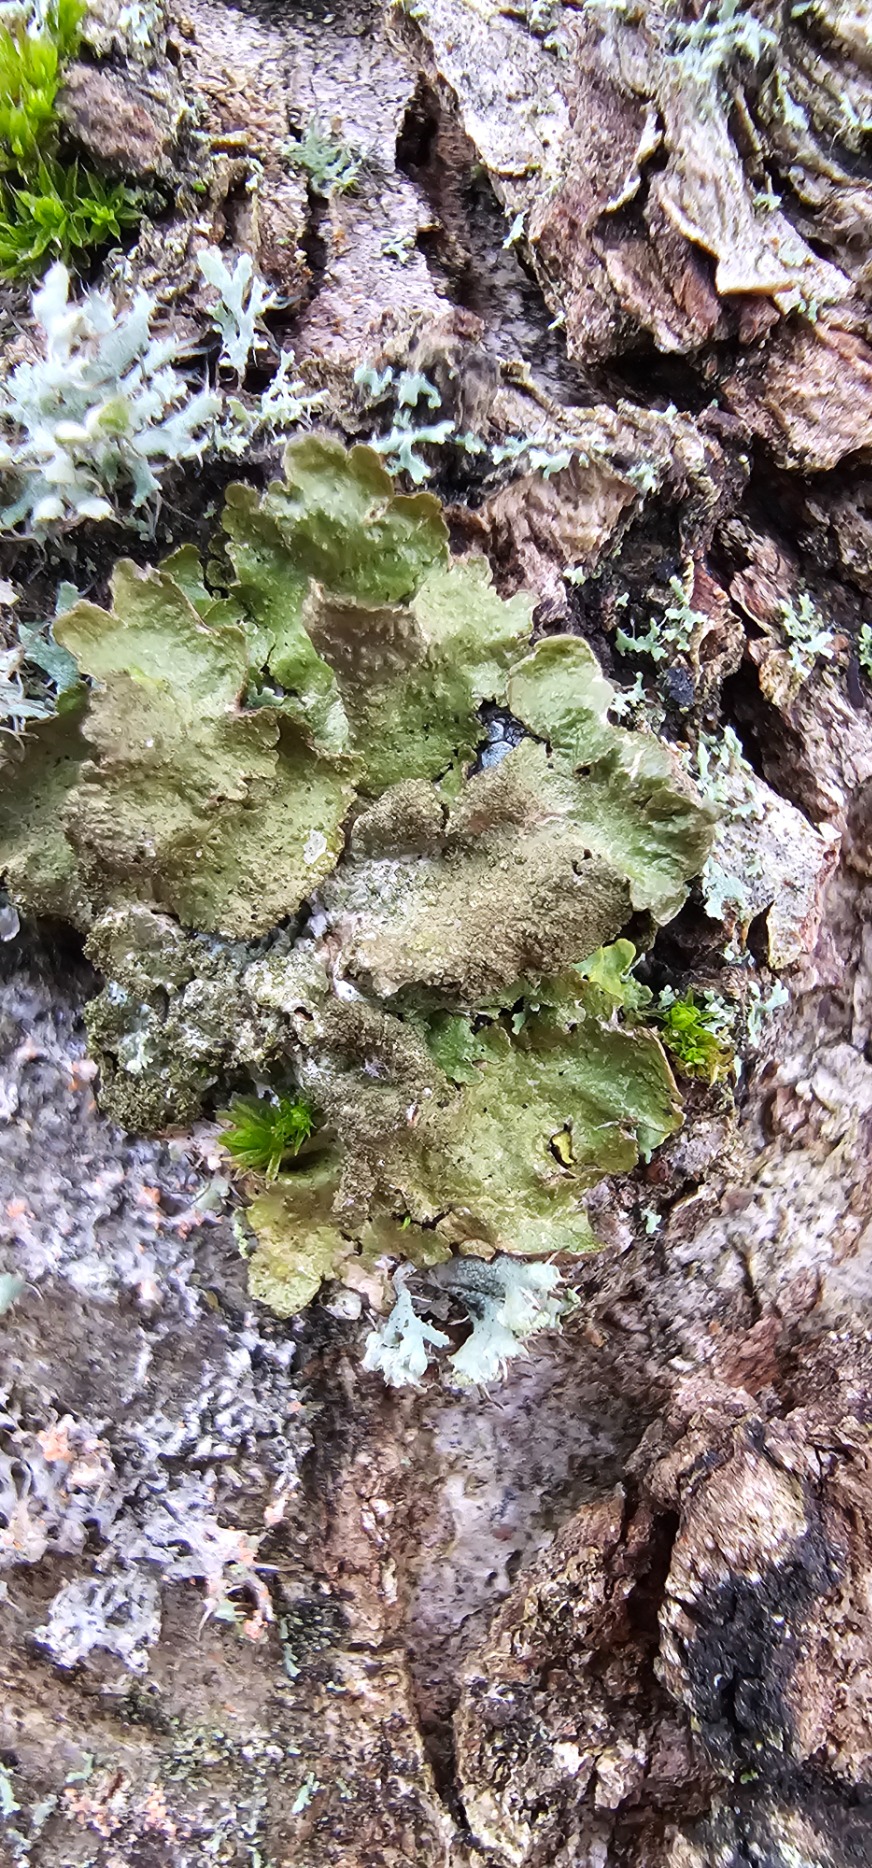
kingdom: Fungi
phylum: Ascomycota
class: Lecanoromycetes
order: Lecanorales
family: Parmeliaceae
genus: Melanelixia
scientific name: Melanelixia subaurifera
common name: Guldpudret skållav
